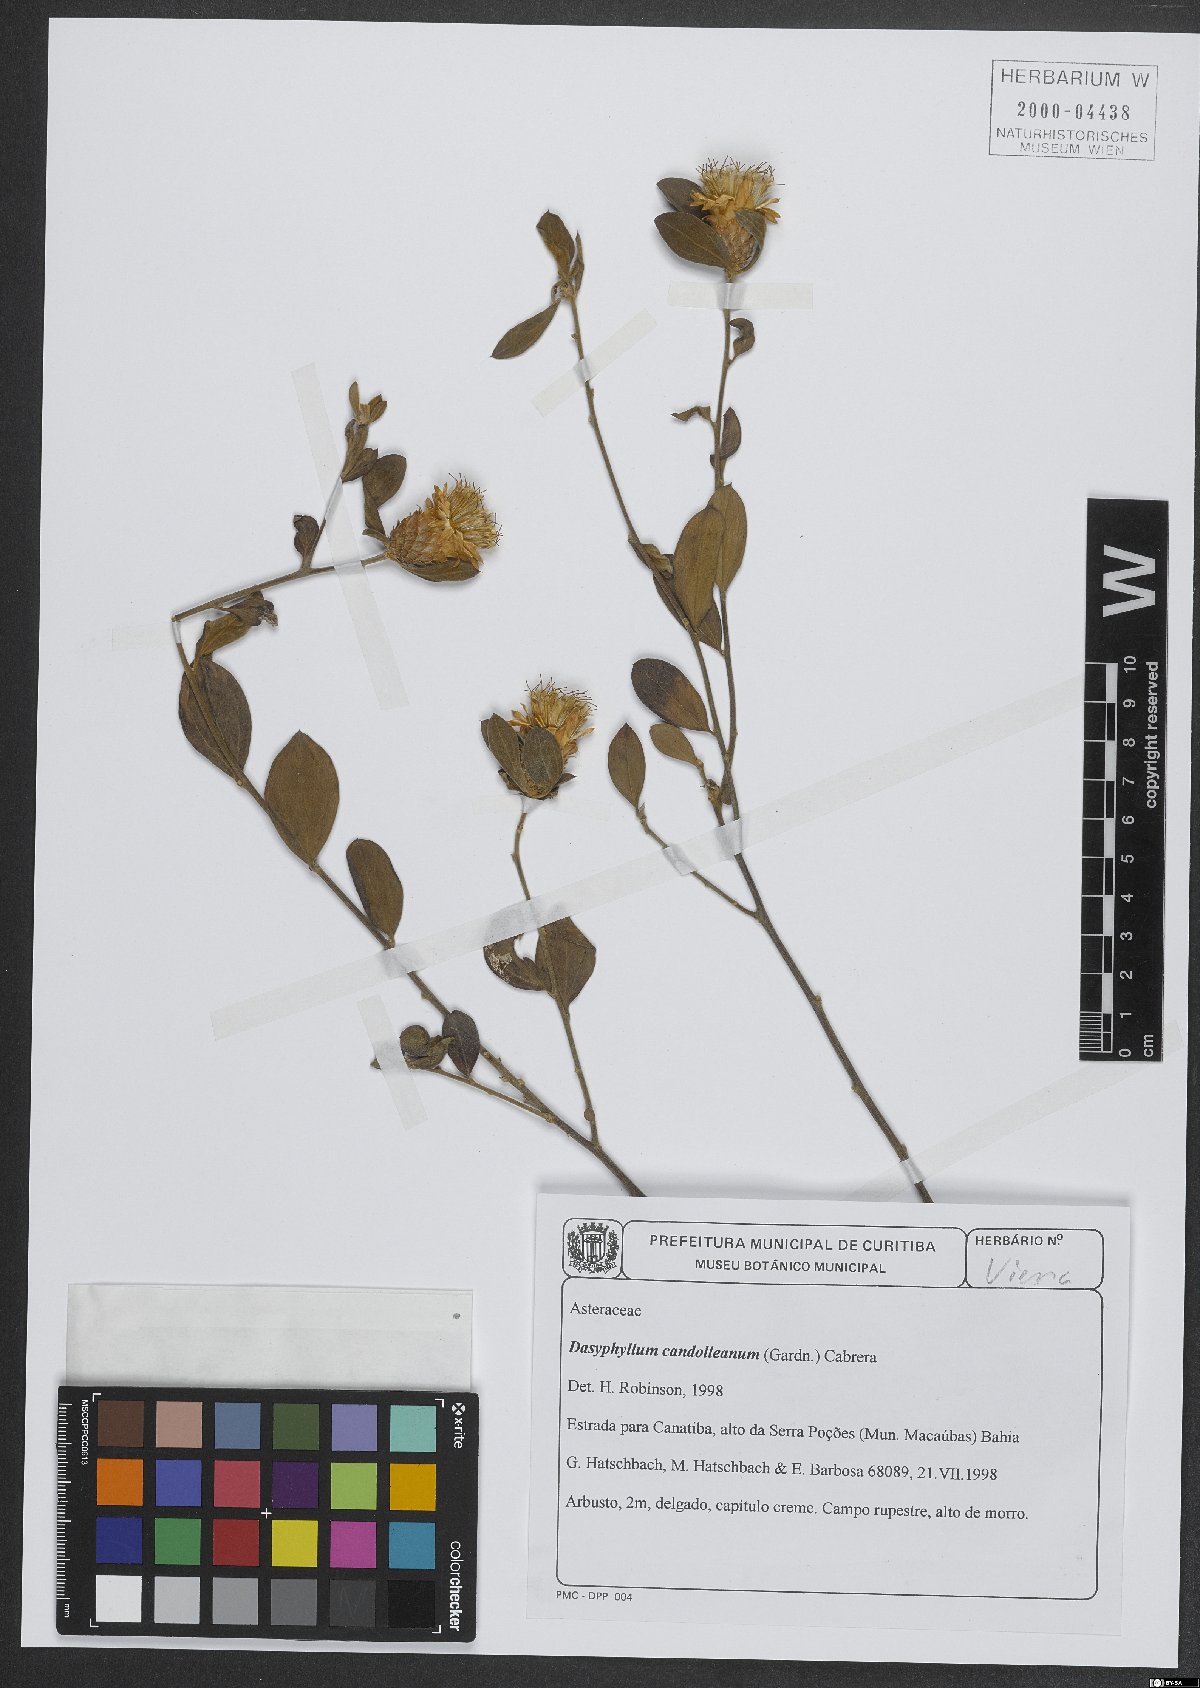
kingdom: Plantae
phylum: Tracheophyta
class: Magnoliopsida
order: Asterales
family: Asteraceae
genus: Dasyphyllum
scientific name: Dasyphyllum candolleanum
